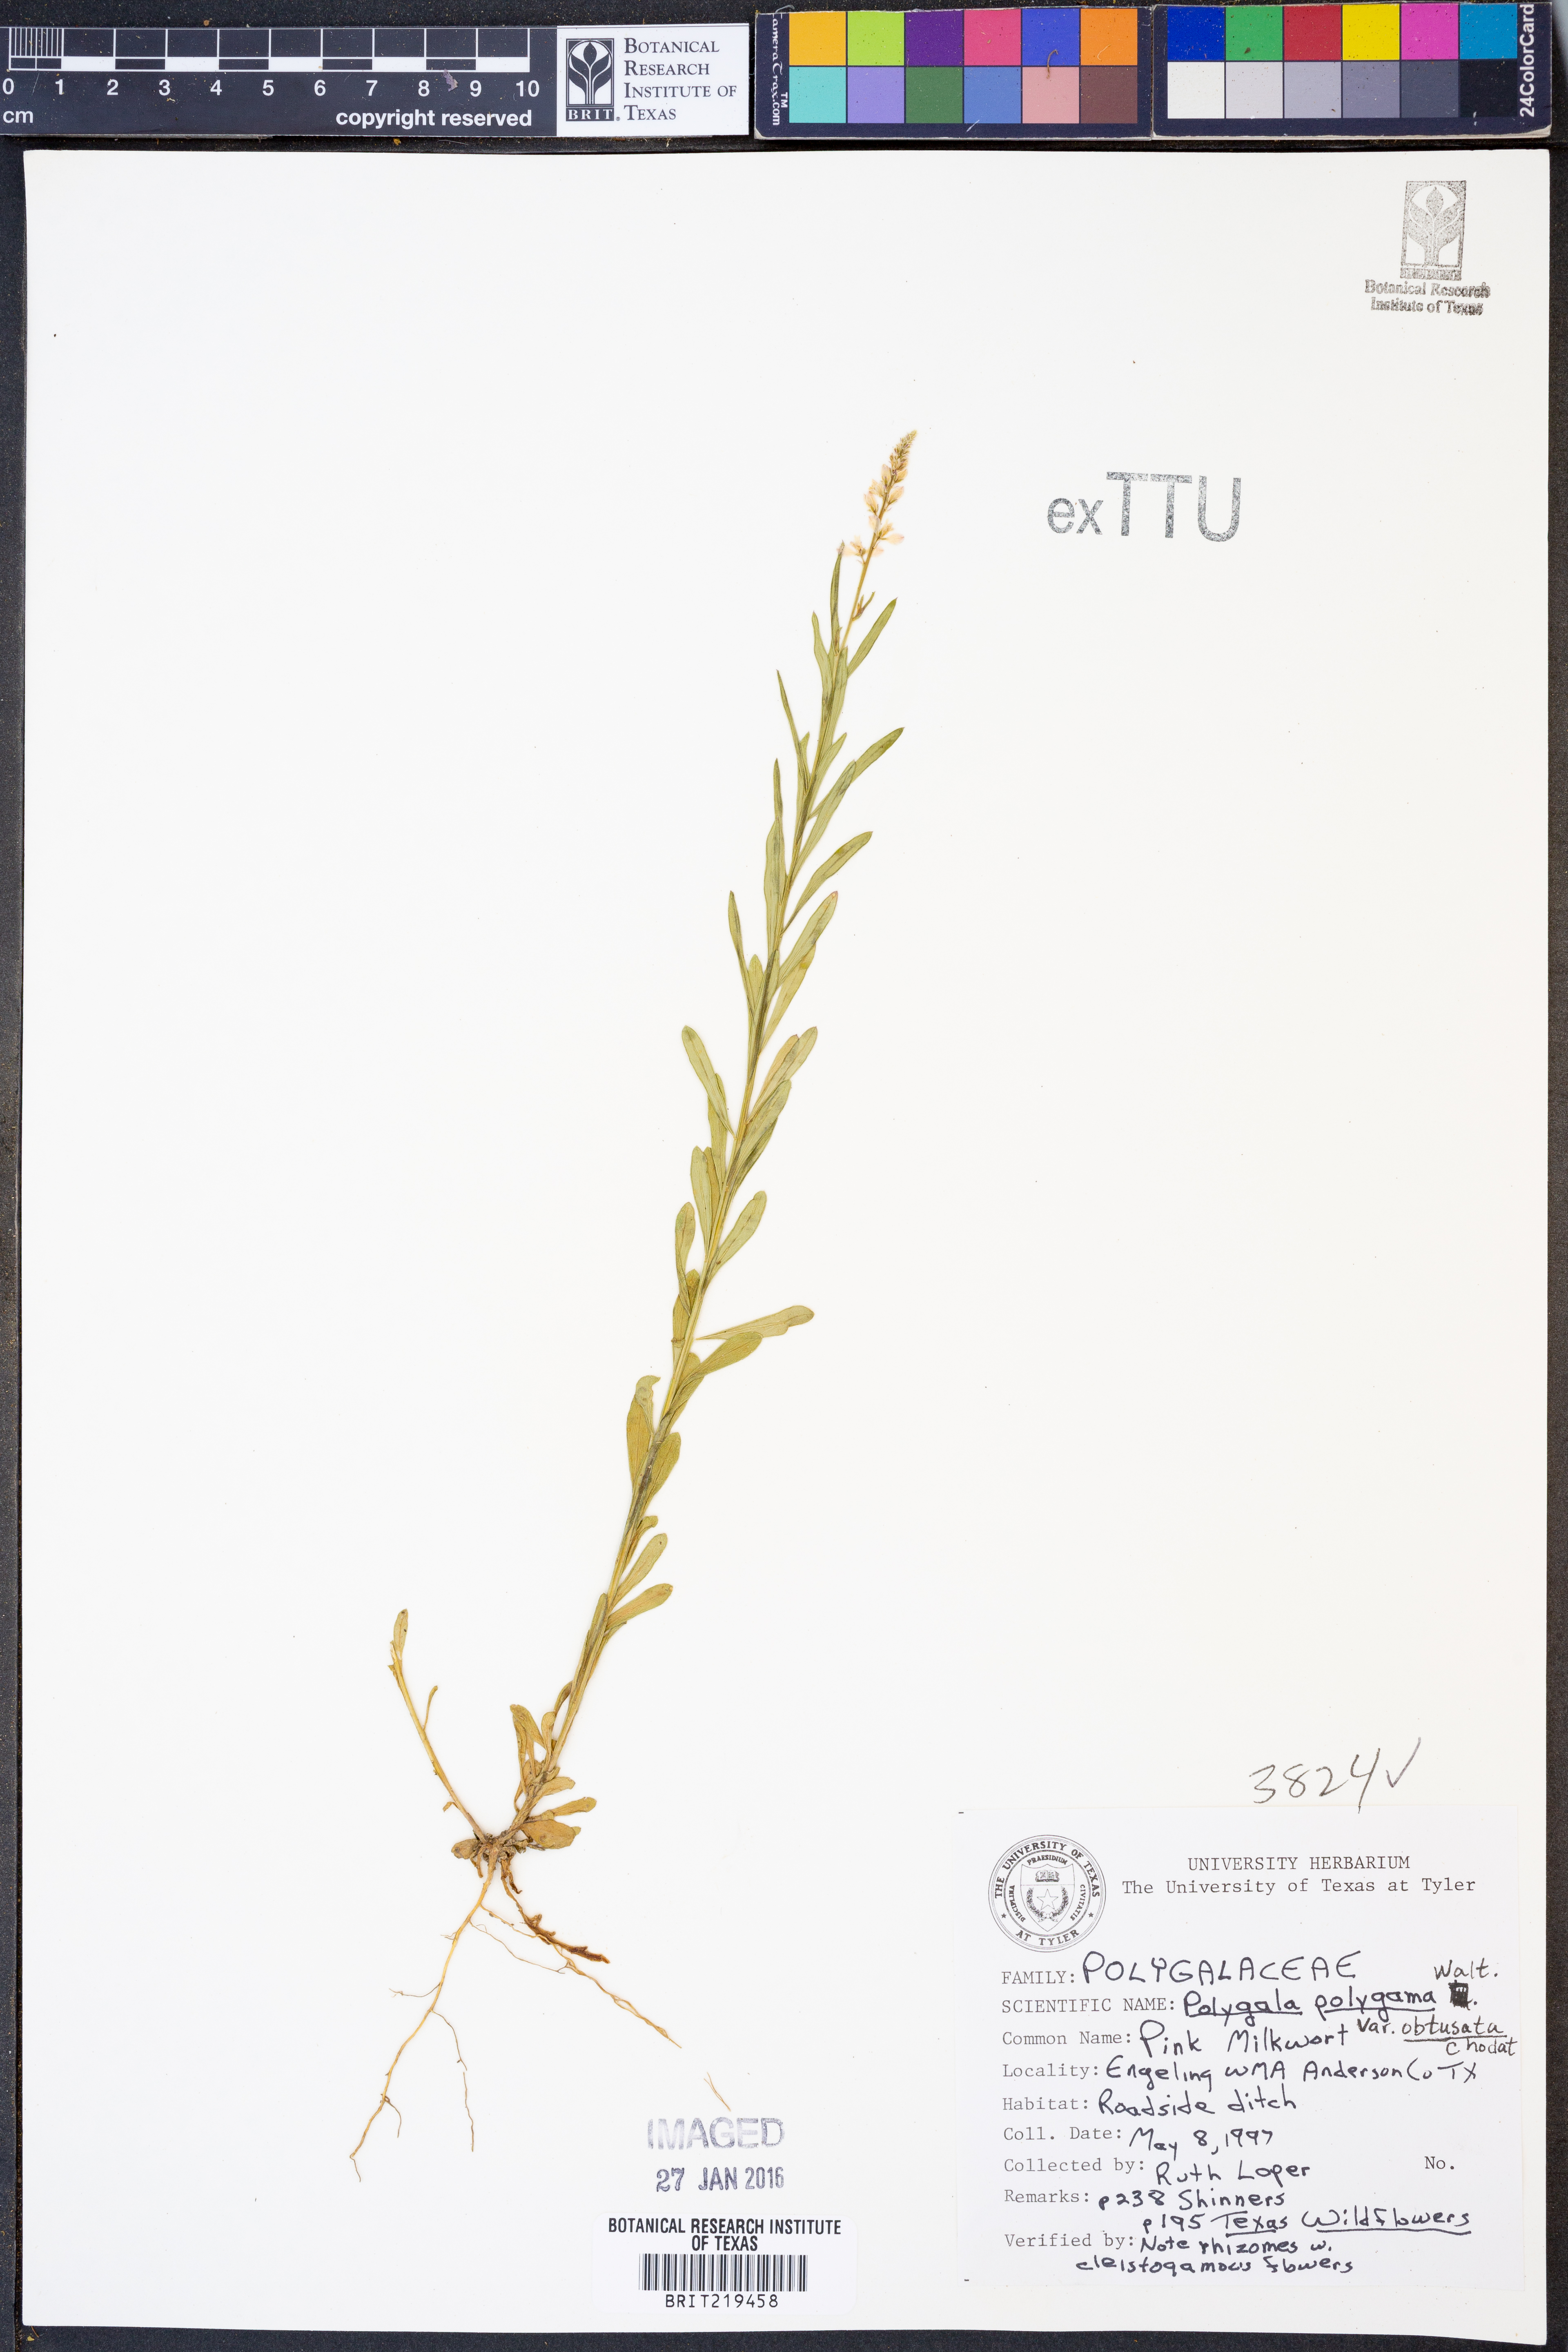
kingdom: Plantae
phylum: Tracheophyta
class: Magnoliopsida
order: Fabales
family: Polygalaceae
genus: Polygala
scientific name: Polygala polygama
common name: Bitter milkwort
